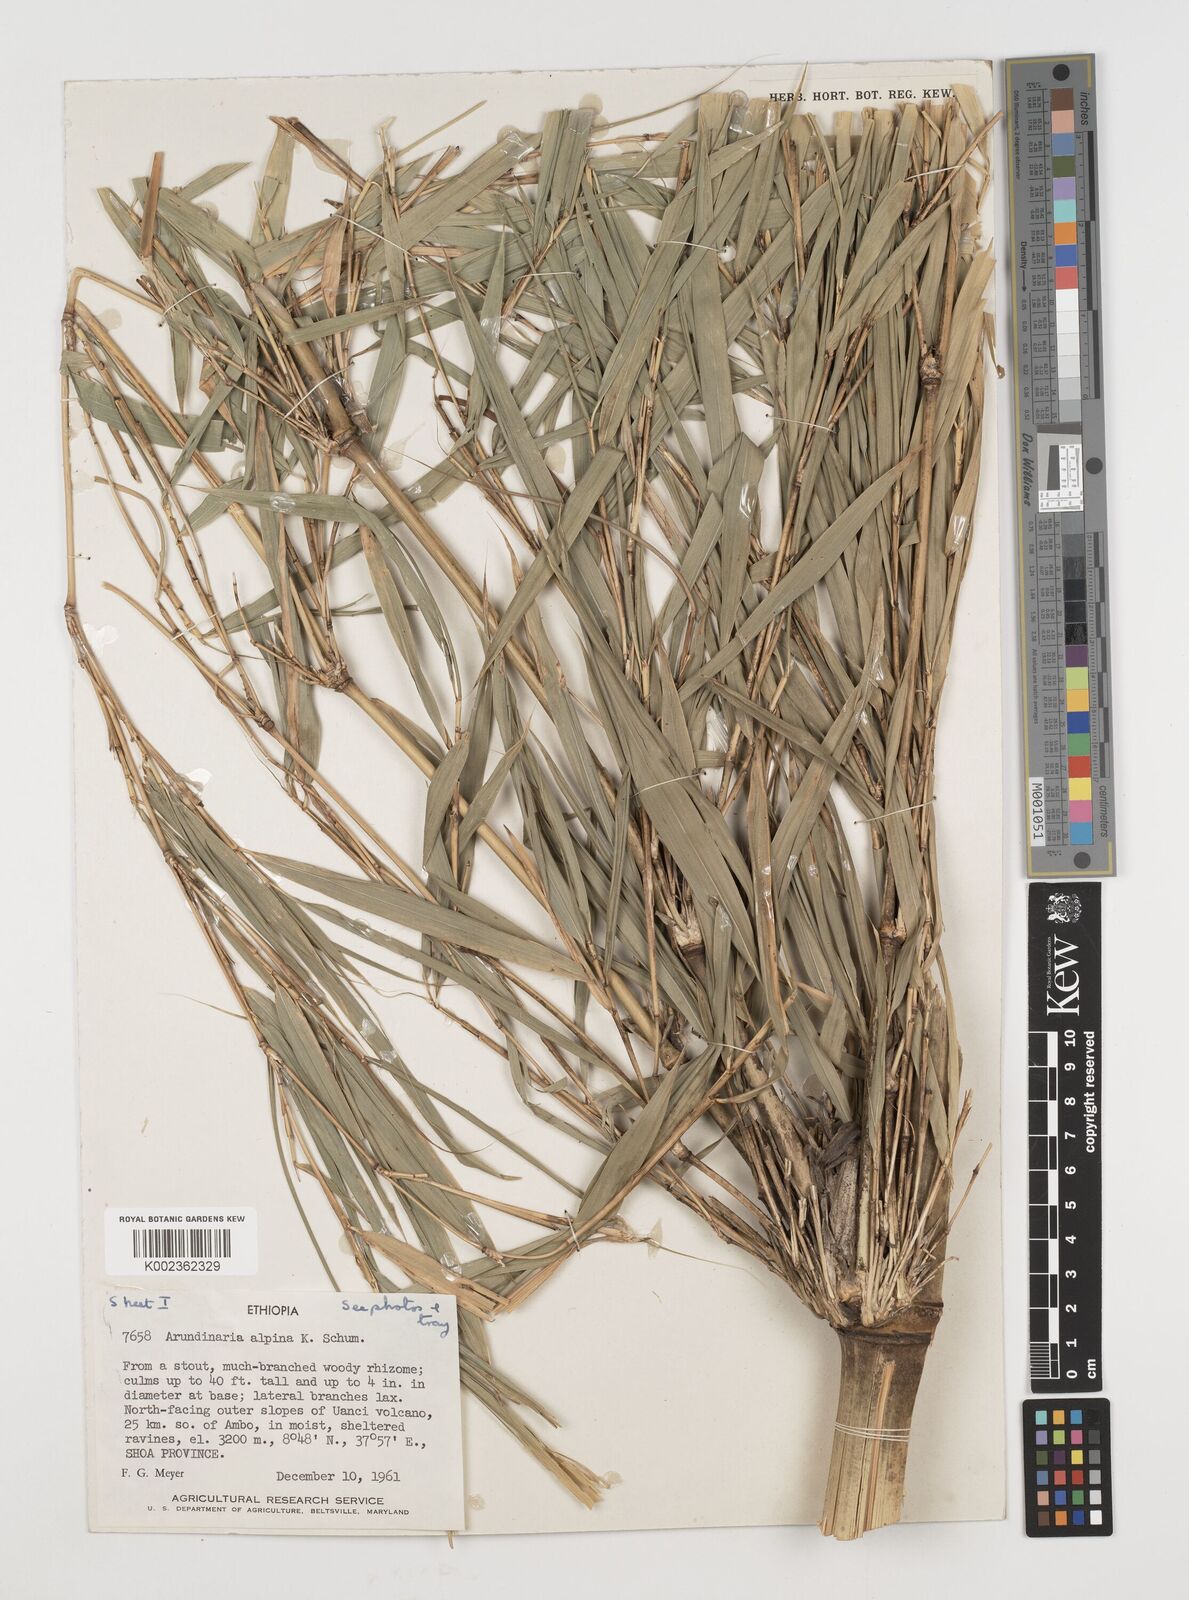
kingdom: Plantae
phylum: Tracheophyta
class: Liliopsida
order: Poales
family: Poaceae
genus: Oldeania
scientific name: Oldeania alpina
